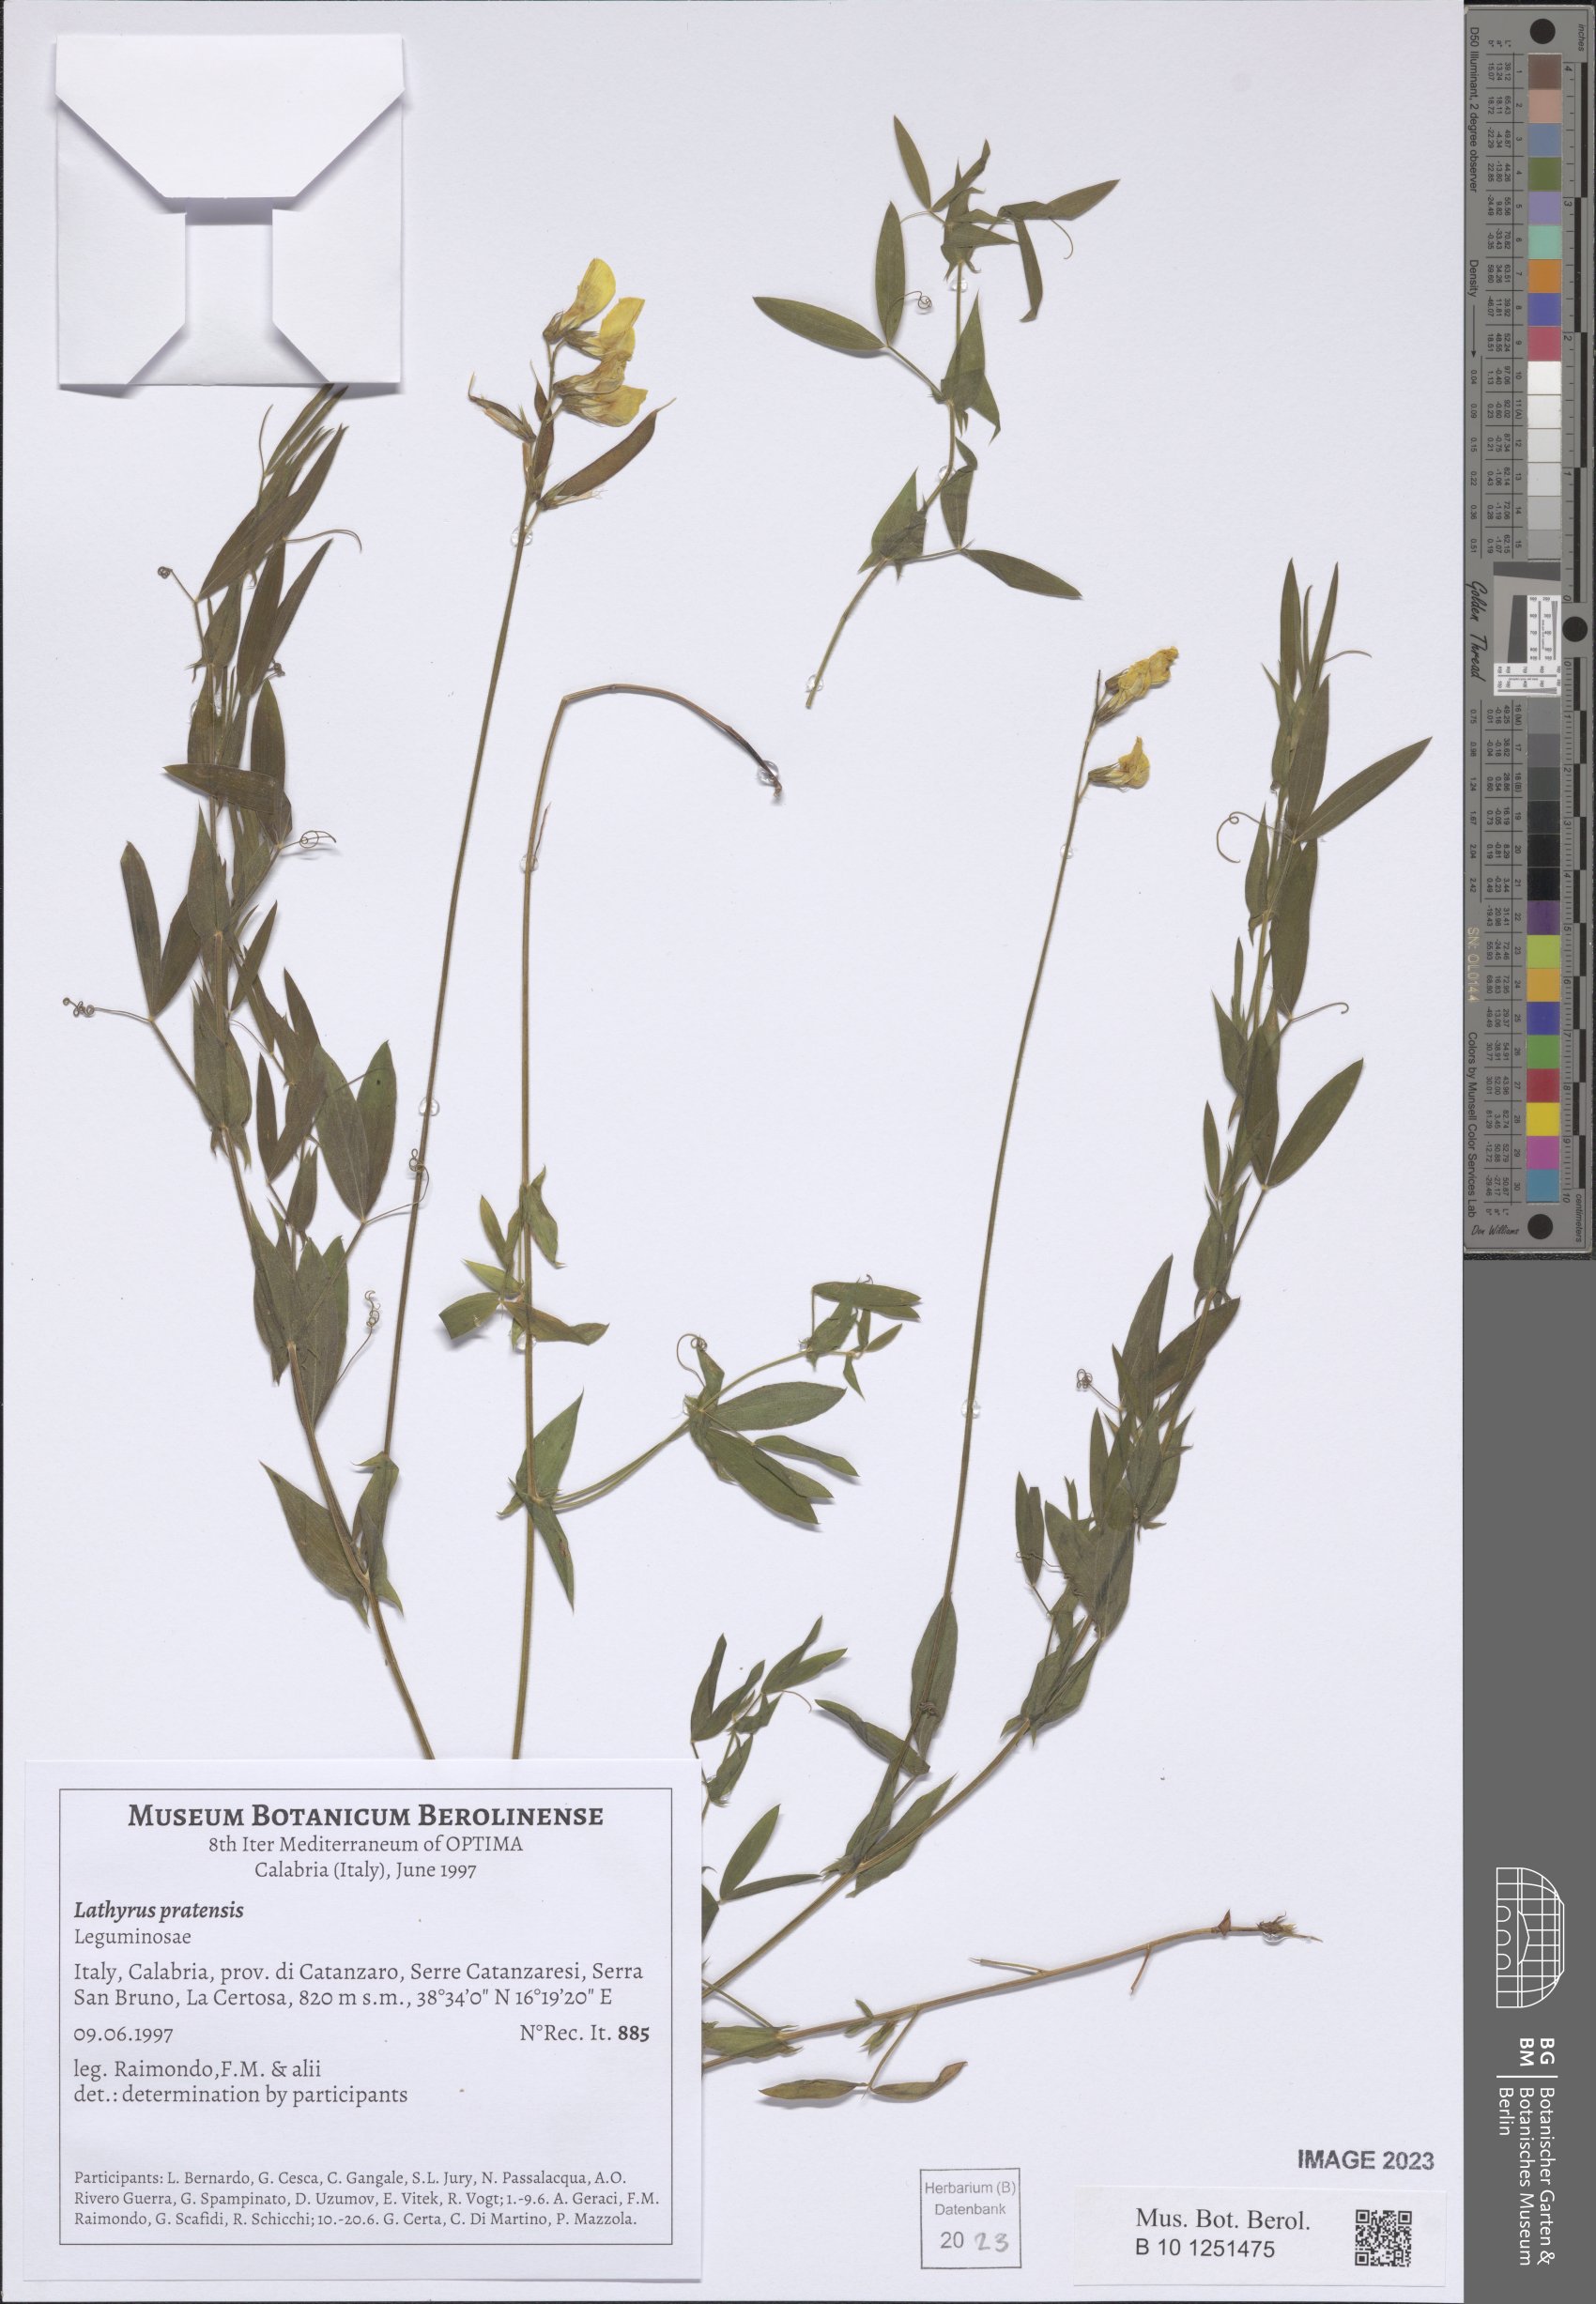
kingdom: Plantae
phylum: Tracheophyta
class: Magnoliopsida
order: Fabales
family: Fabaceae
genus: Lathyrus
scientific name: Lathyrus pratensis
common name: Meadow vetchling
